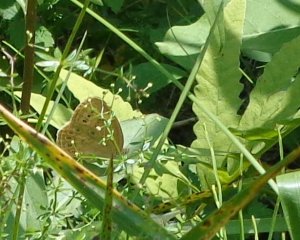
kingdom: Animalia
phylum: Arthropoda
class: Insecta
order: Lepidoptera
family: Nymphalidae
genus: Lethe
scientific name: Lethe eurydice
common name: Eyed Brown
